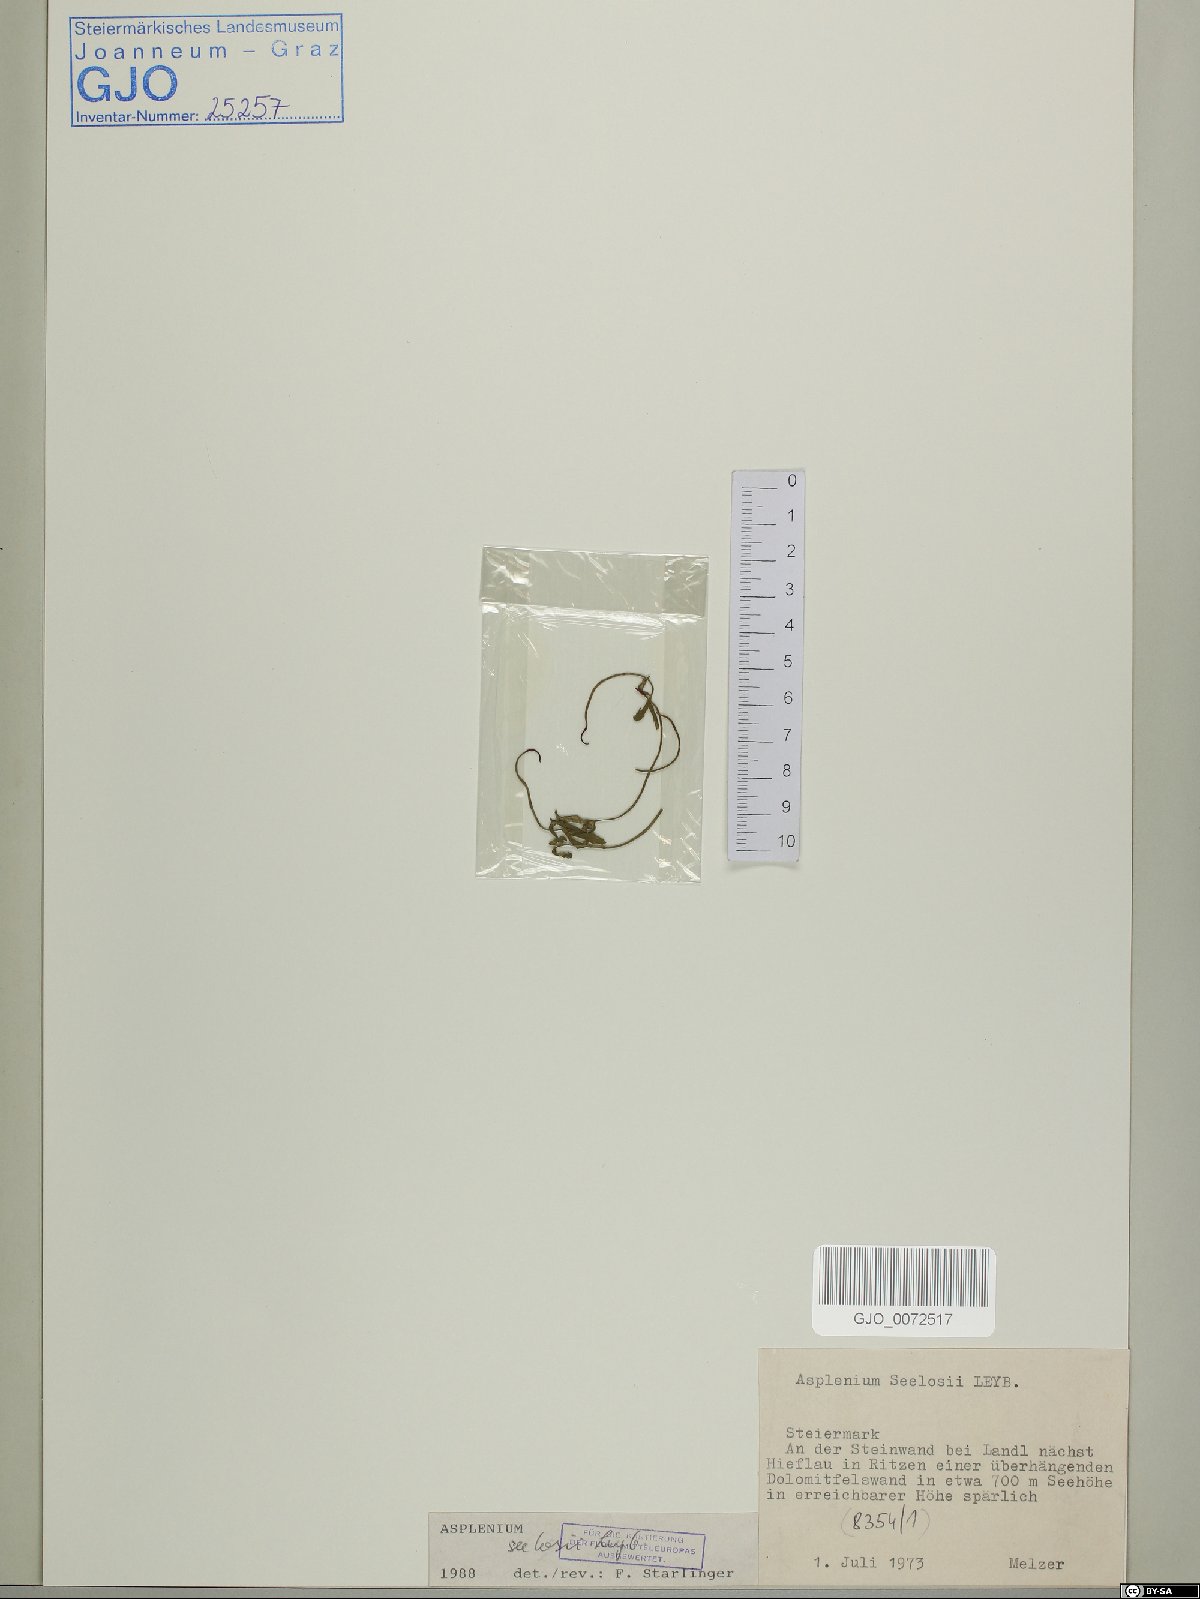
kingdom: Plantae
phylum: Tracheophyta
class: Polypodiopsida
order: Polypodiales
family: Aspleniaceae
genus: Asplenium
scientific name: Asplenium seelosii
